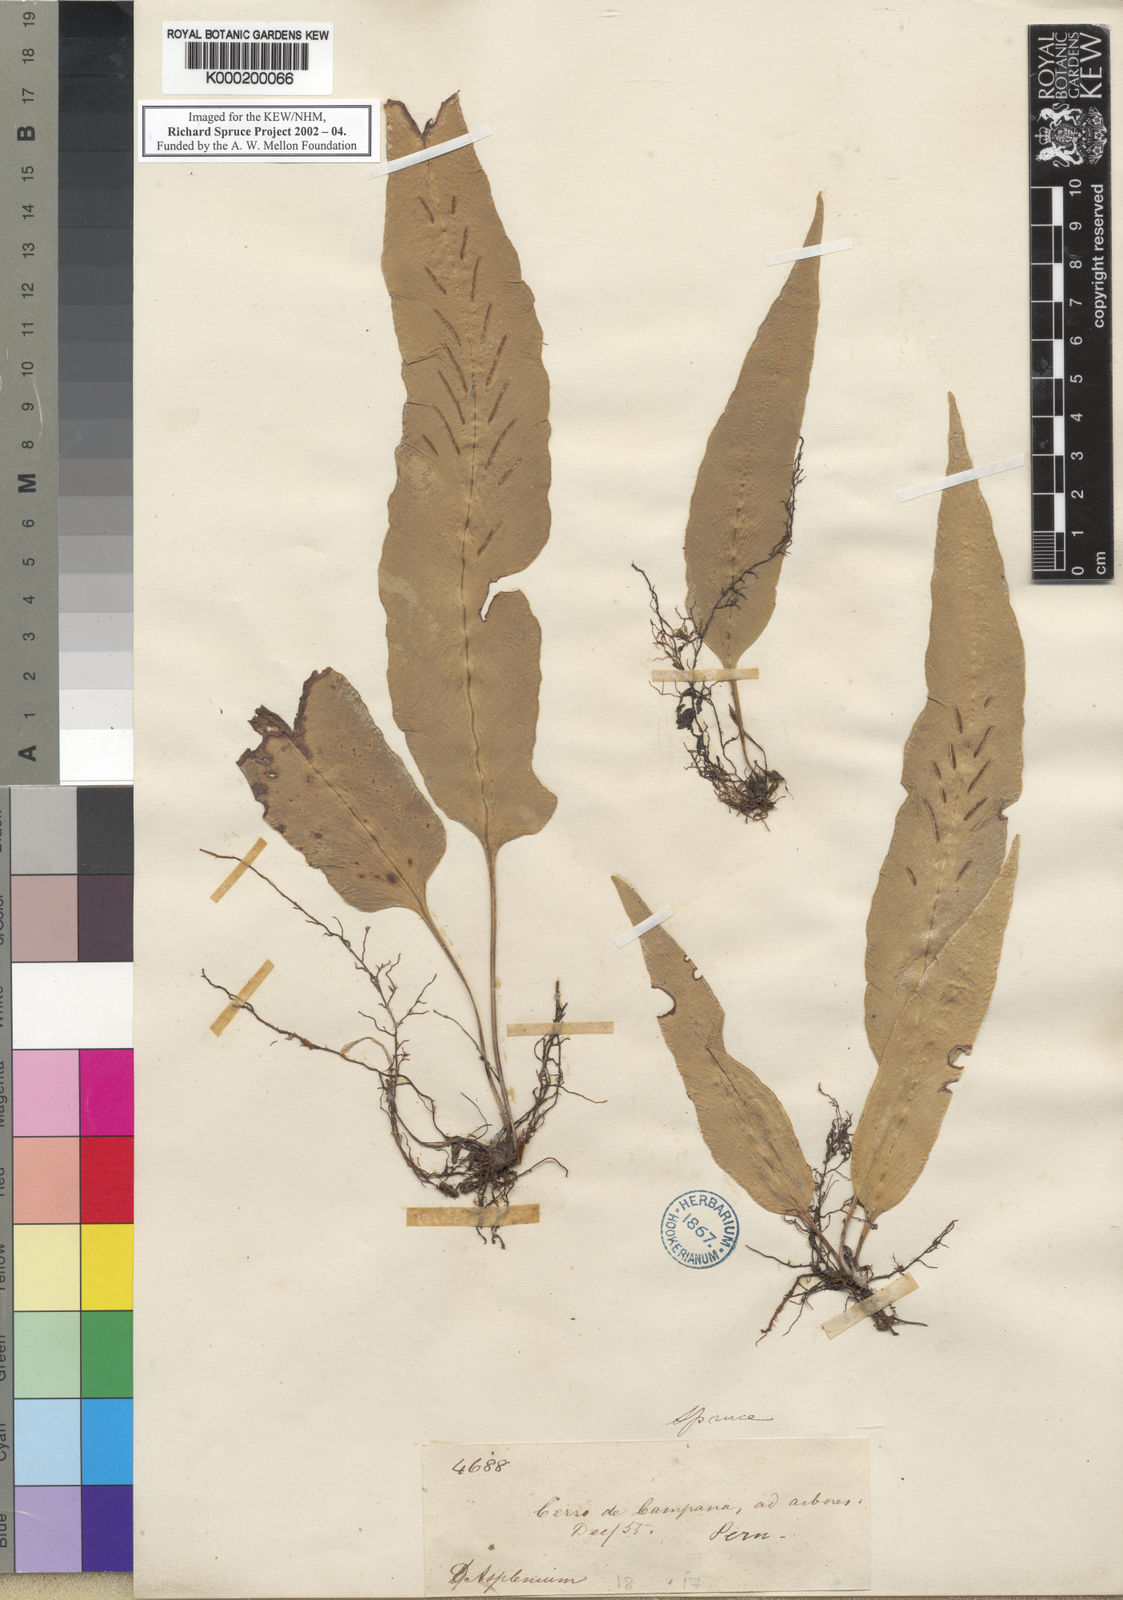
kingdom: Plantae
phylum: Tracheophyta
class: Polypodiopsida
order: Polypodiales
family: Aspleniaceae
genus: Asplenium
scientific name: Asplenium
